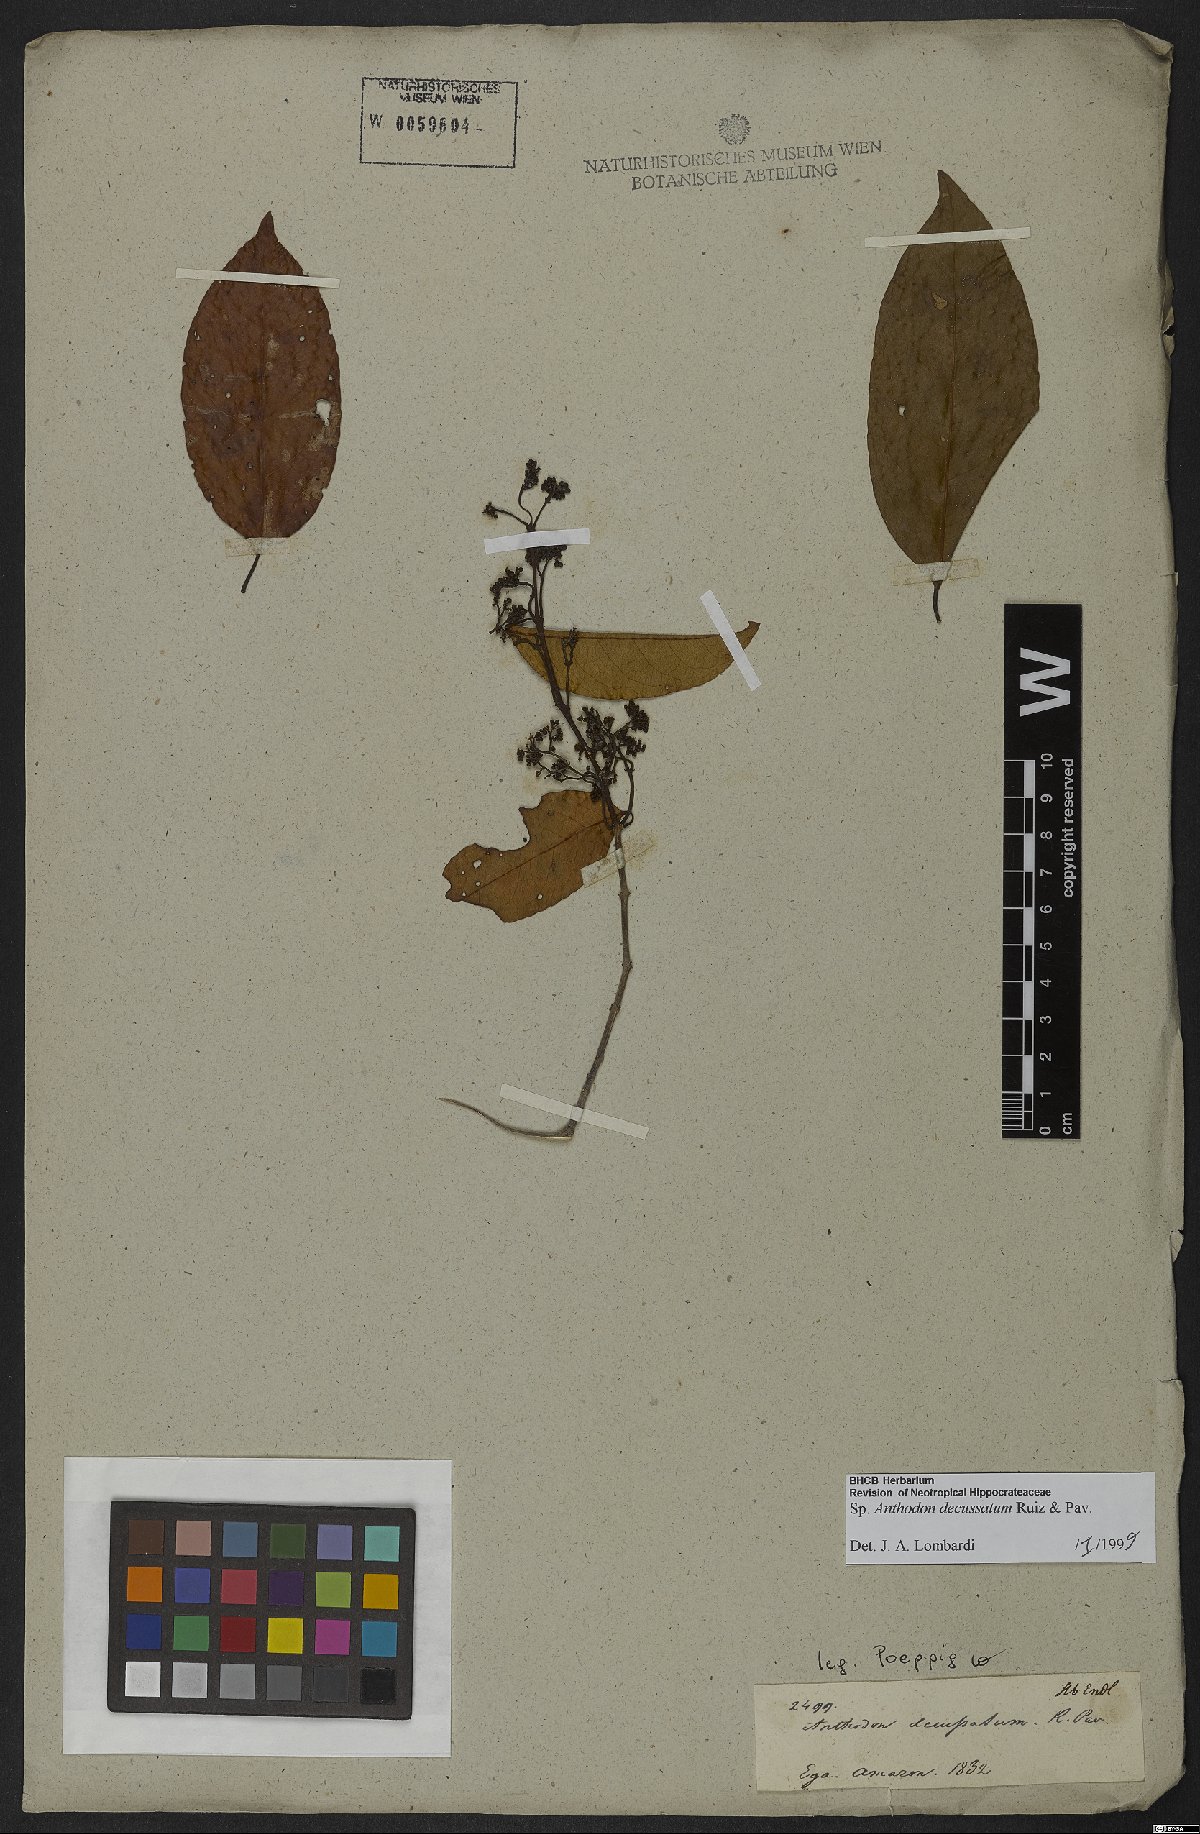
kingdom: Plantae
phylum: Tracheophyta
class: Magnoliopsida
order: Celastrales
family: Celastraceae
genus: Anthodon
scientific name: Anthodon decussatum
